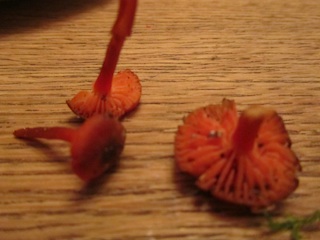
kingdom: Fungi
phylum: Basidiomycota
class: Agaricomycetes
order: Agaricales
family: Hygrophoraceae
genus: Hygrocybe
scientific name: Hygrocybe
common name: vokshat
